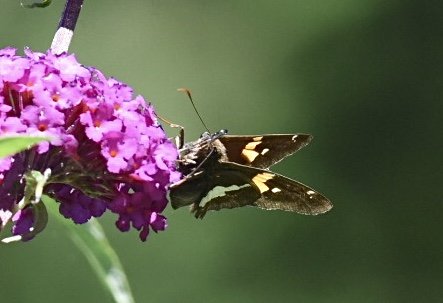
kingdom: Animalia
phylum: Arthropoda
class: Insecta
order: Lepidoptera
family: Hesperiidae
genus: Epargyreus
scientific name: Epargyreus clarus
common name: Silver-spotted Skipper
